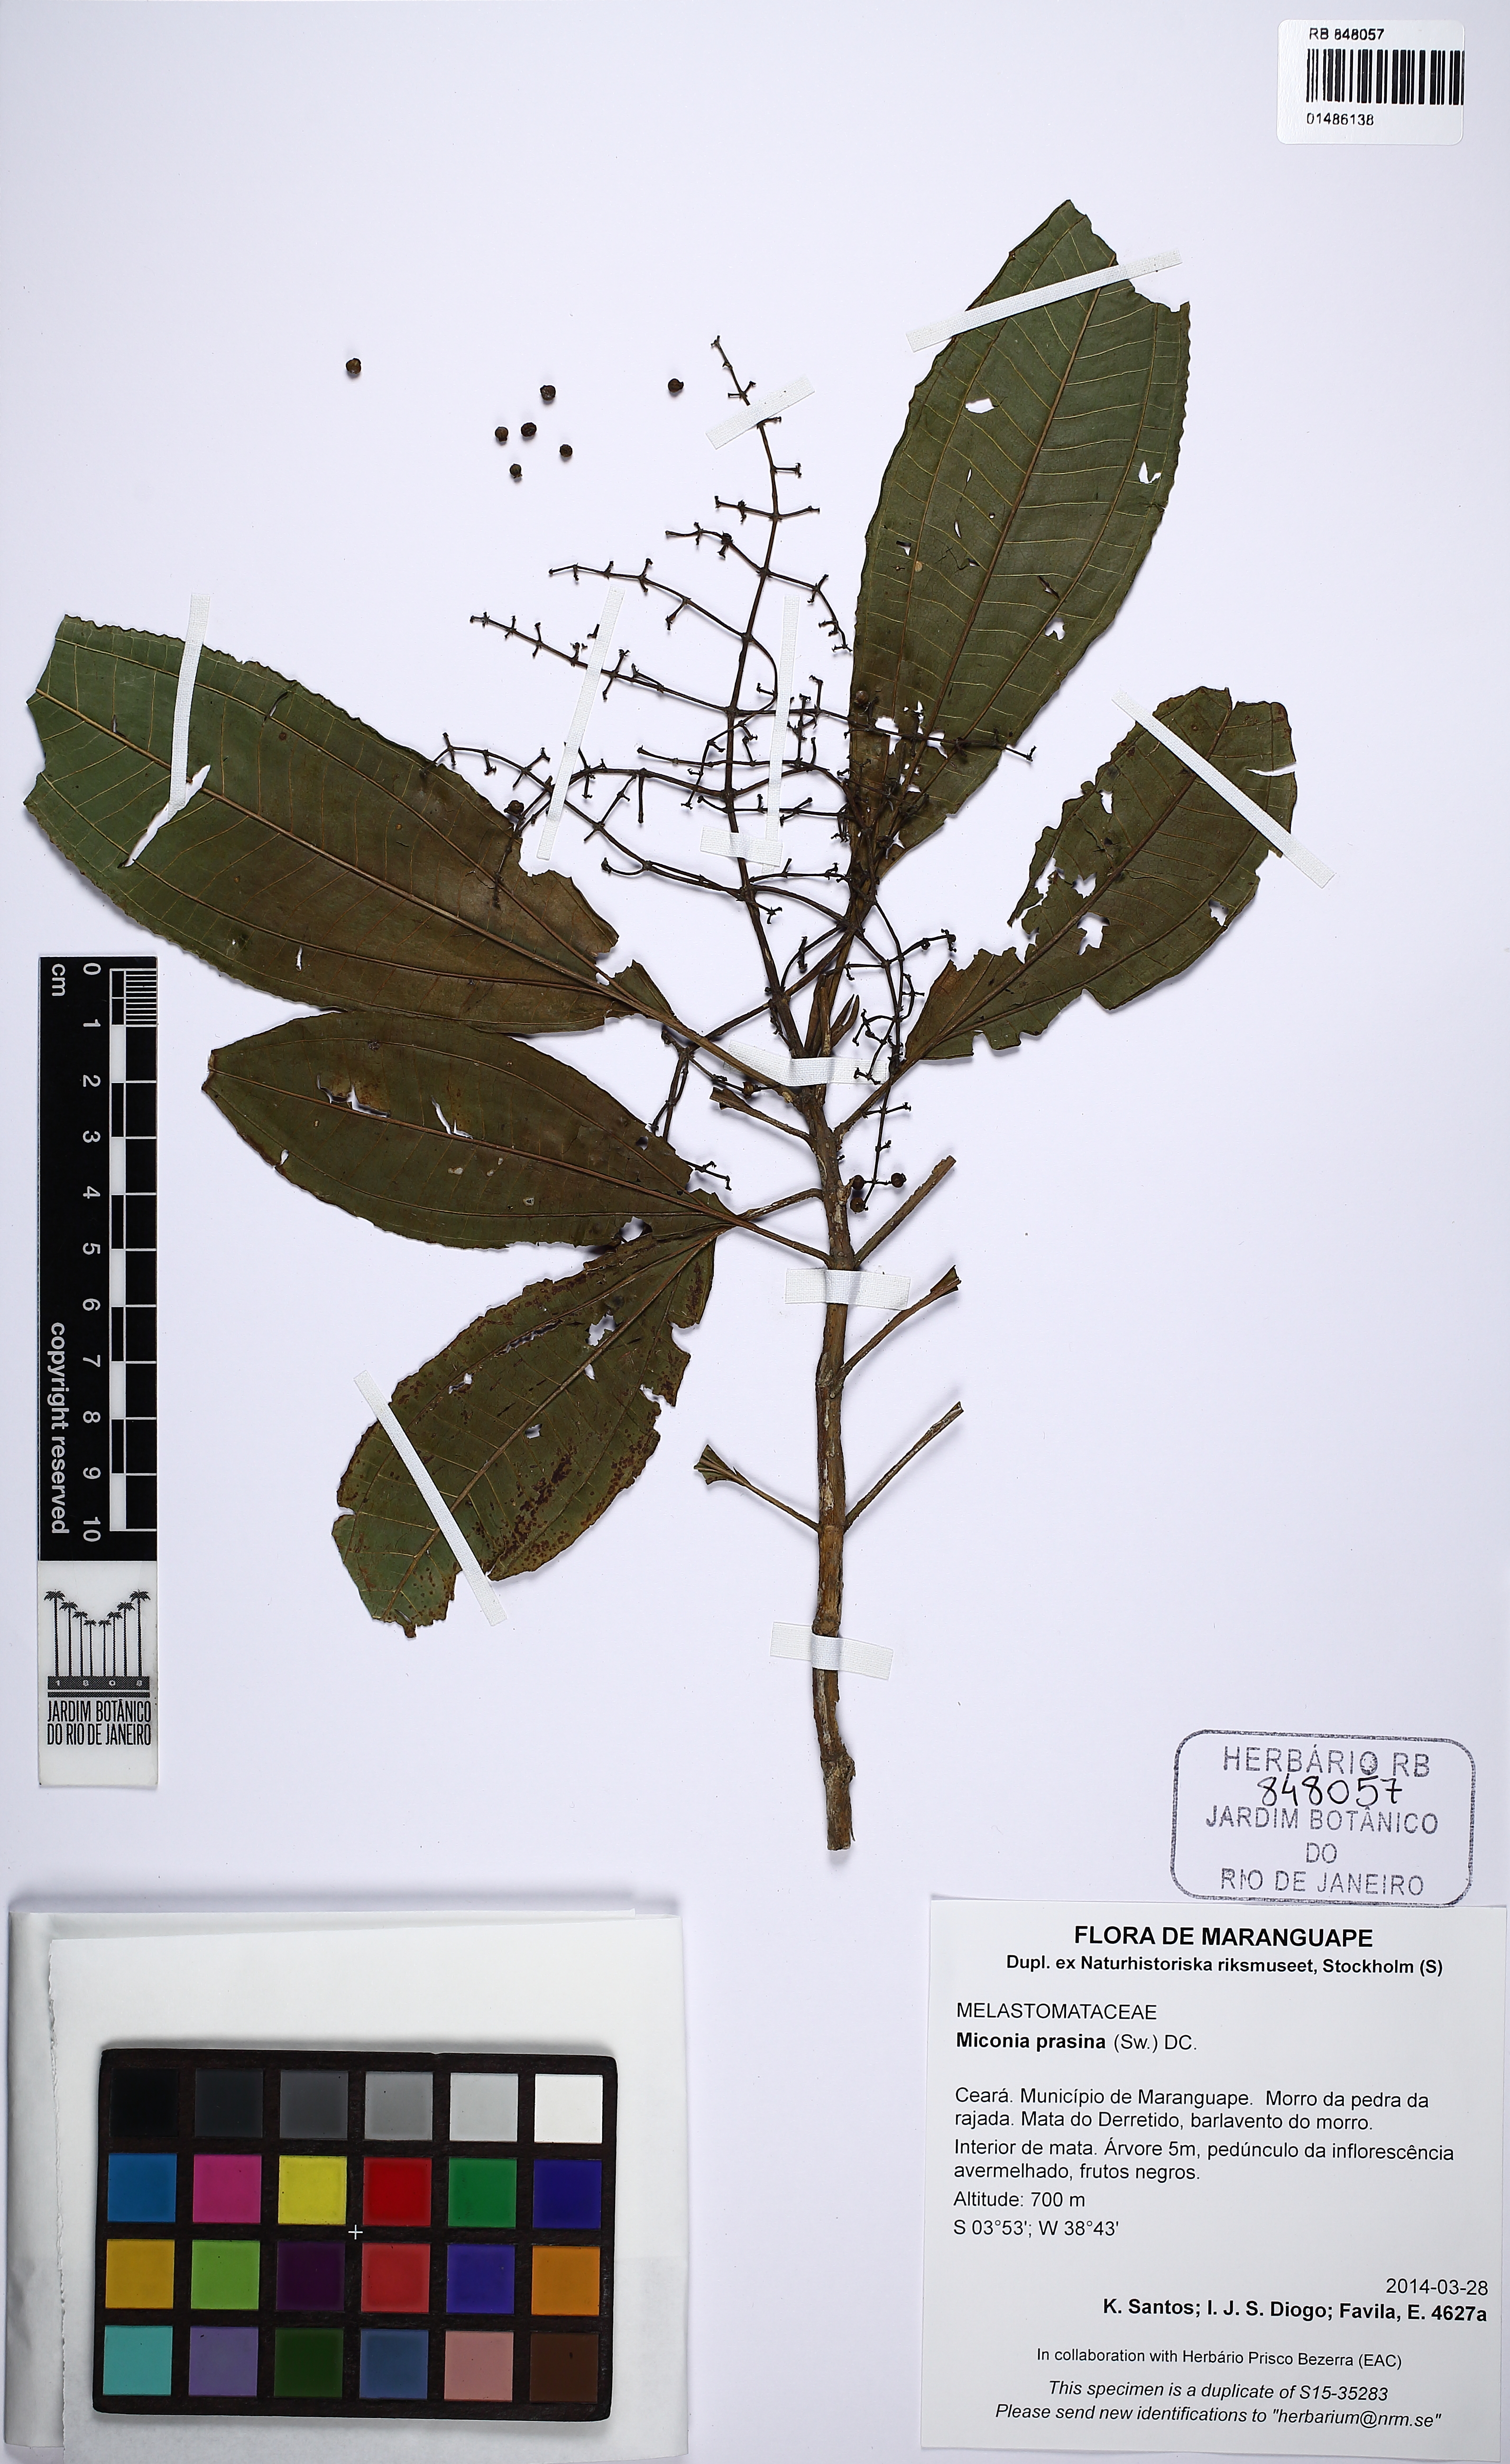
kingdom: Plantae
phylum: Tracheophyta
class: Magnoliopsida
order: Myrtales
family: Melastomataceae
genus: Miconia
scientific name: Miconia prasina
